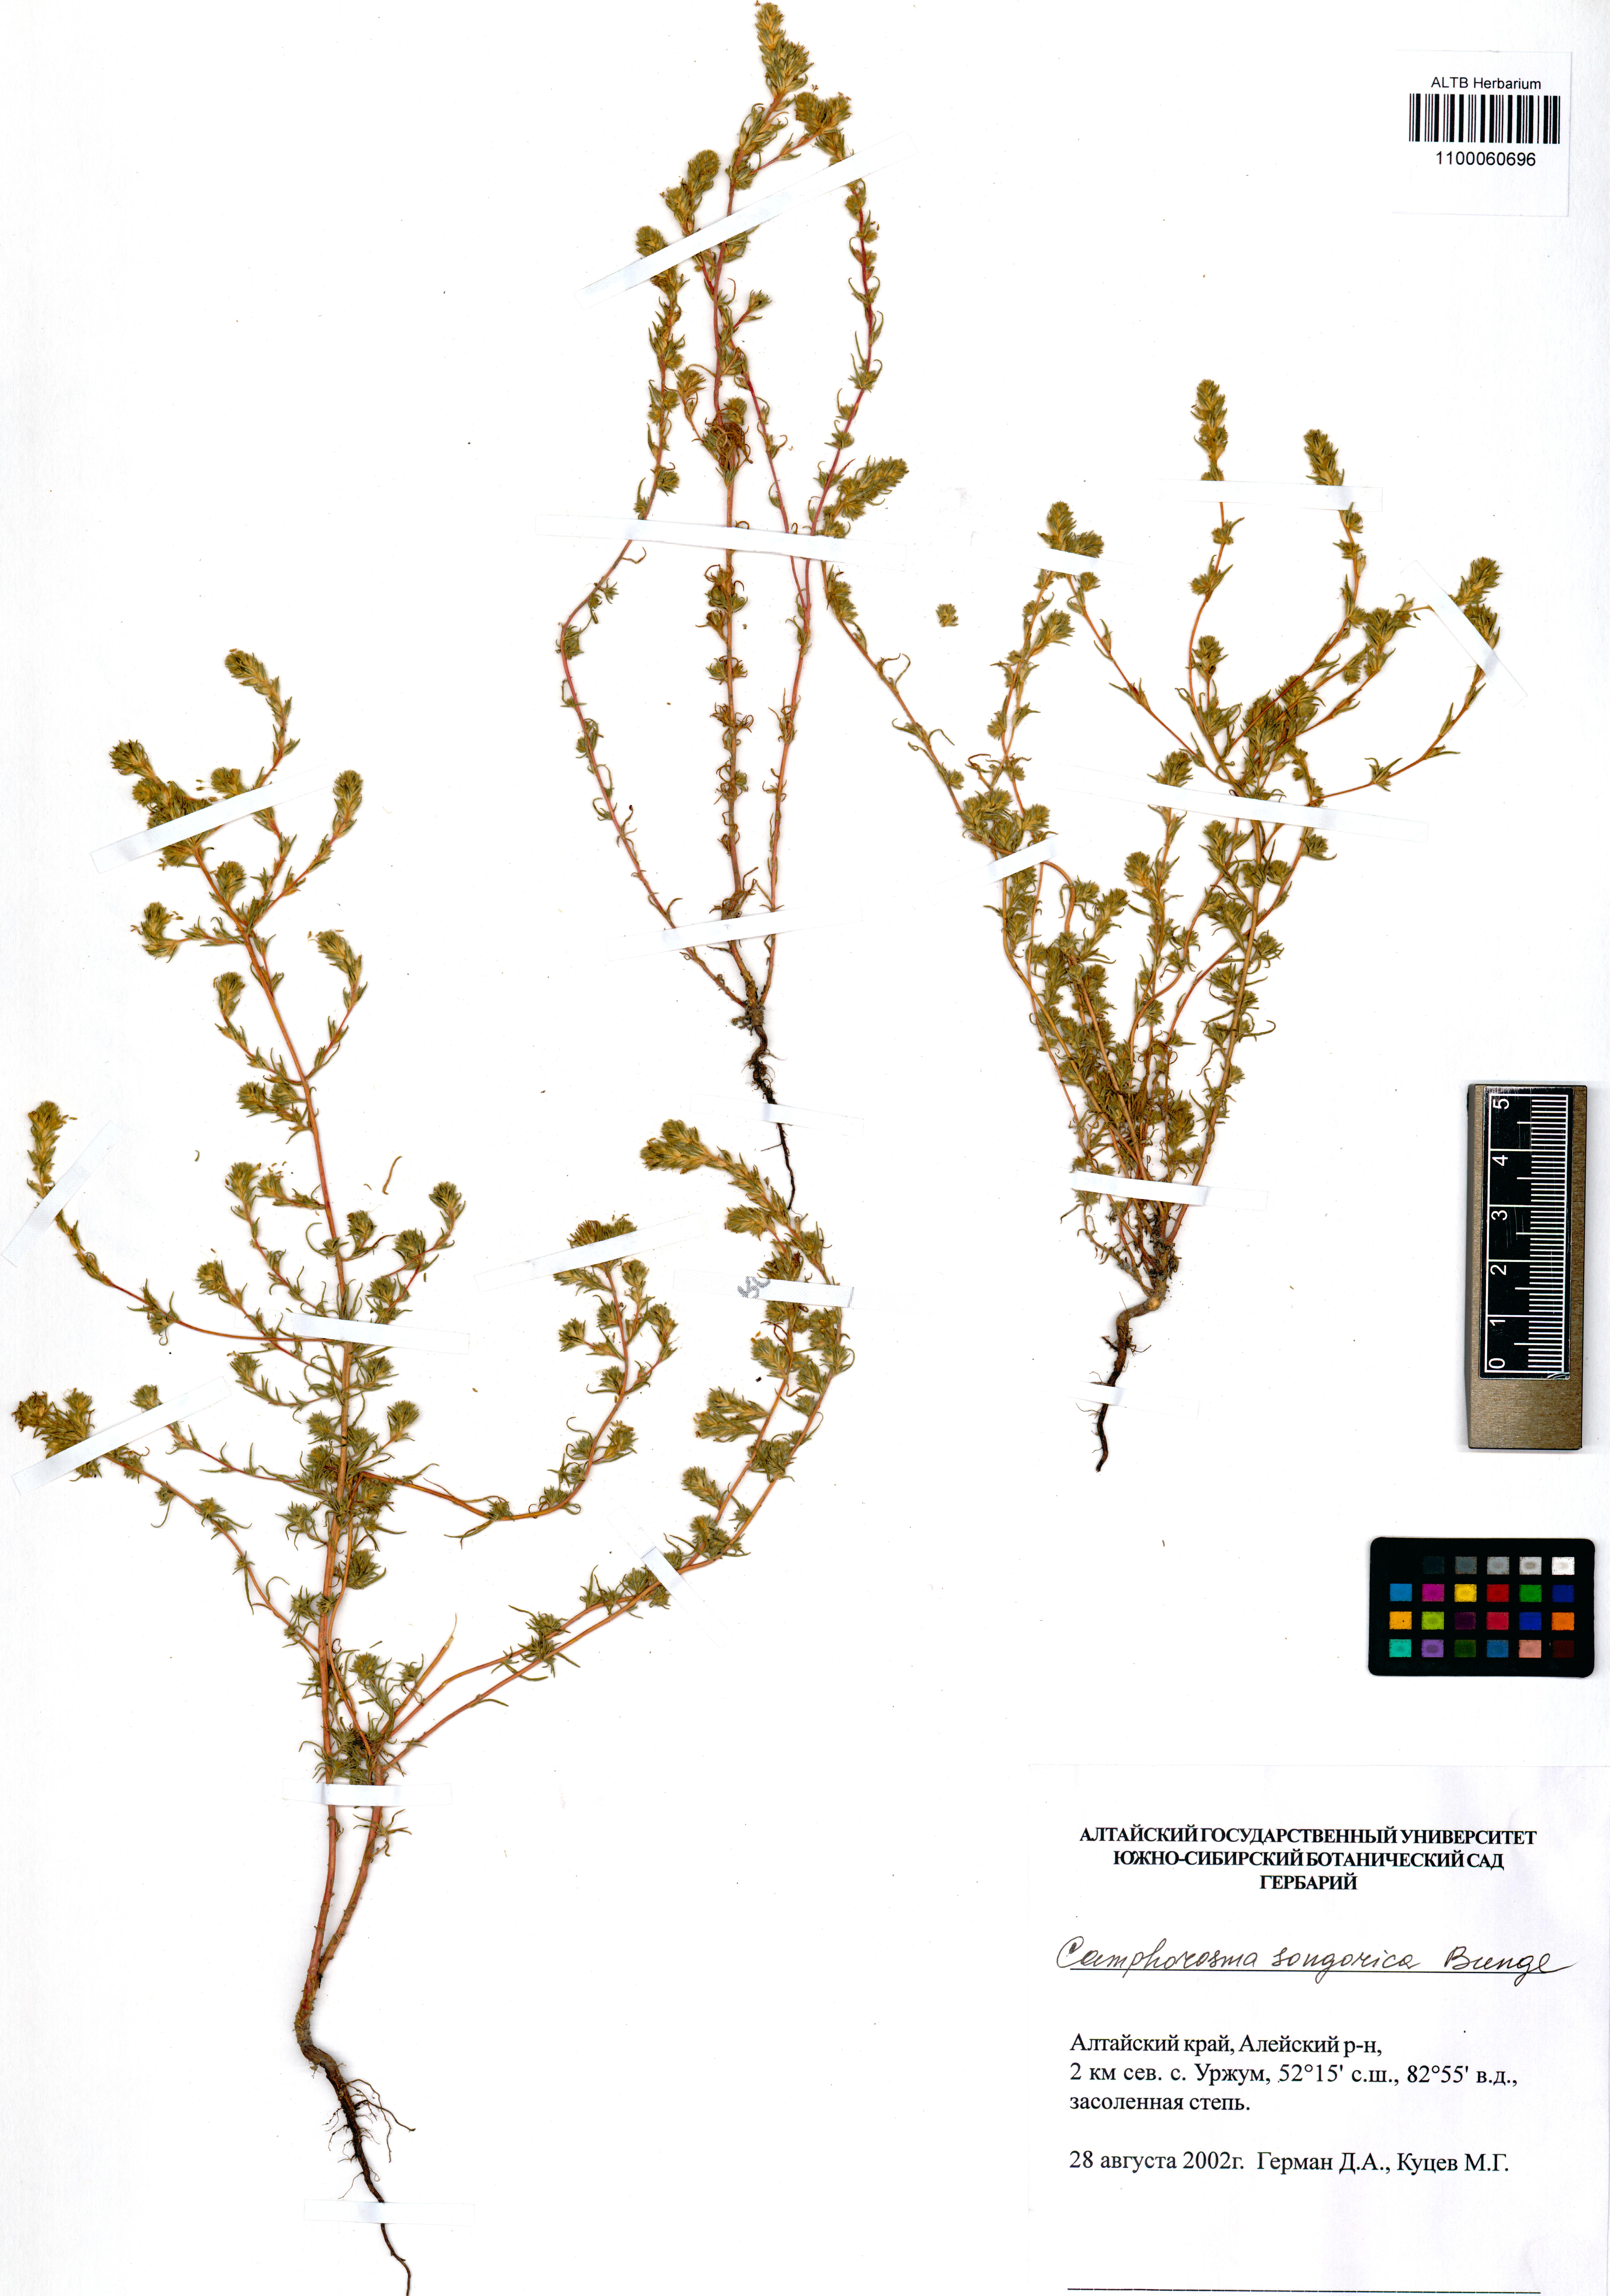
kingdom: Plantae
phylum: Tracheophyta
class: Magnoliopsida
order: Caryophyllales
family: Amaranthaceae
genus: Camphorosma
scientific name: Camphorosma songorica
